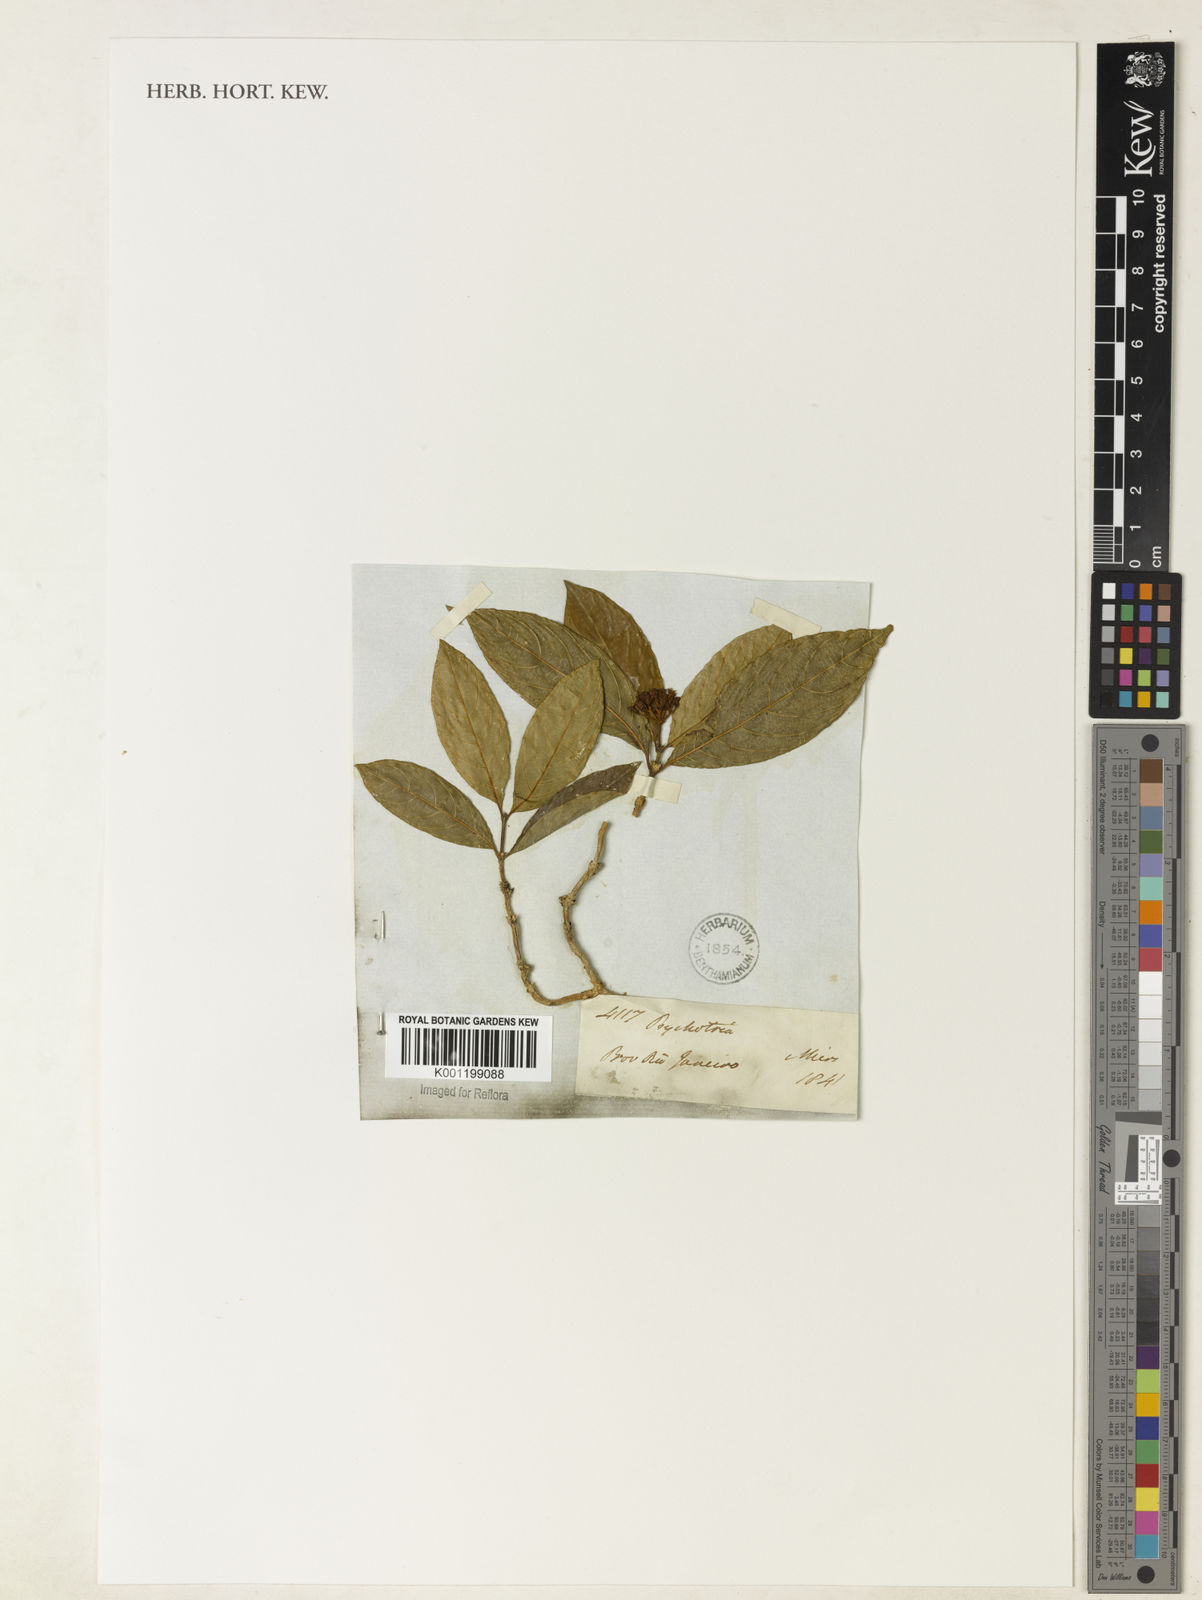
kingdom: Plantae
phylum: Tracheophyta
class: Magnoliopsida
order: Gentianales
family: Rubiaceae
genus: Palicourea
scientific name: Palicourea cuspidata
